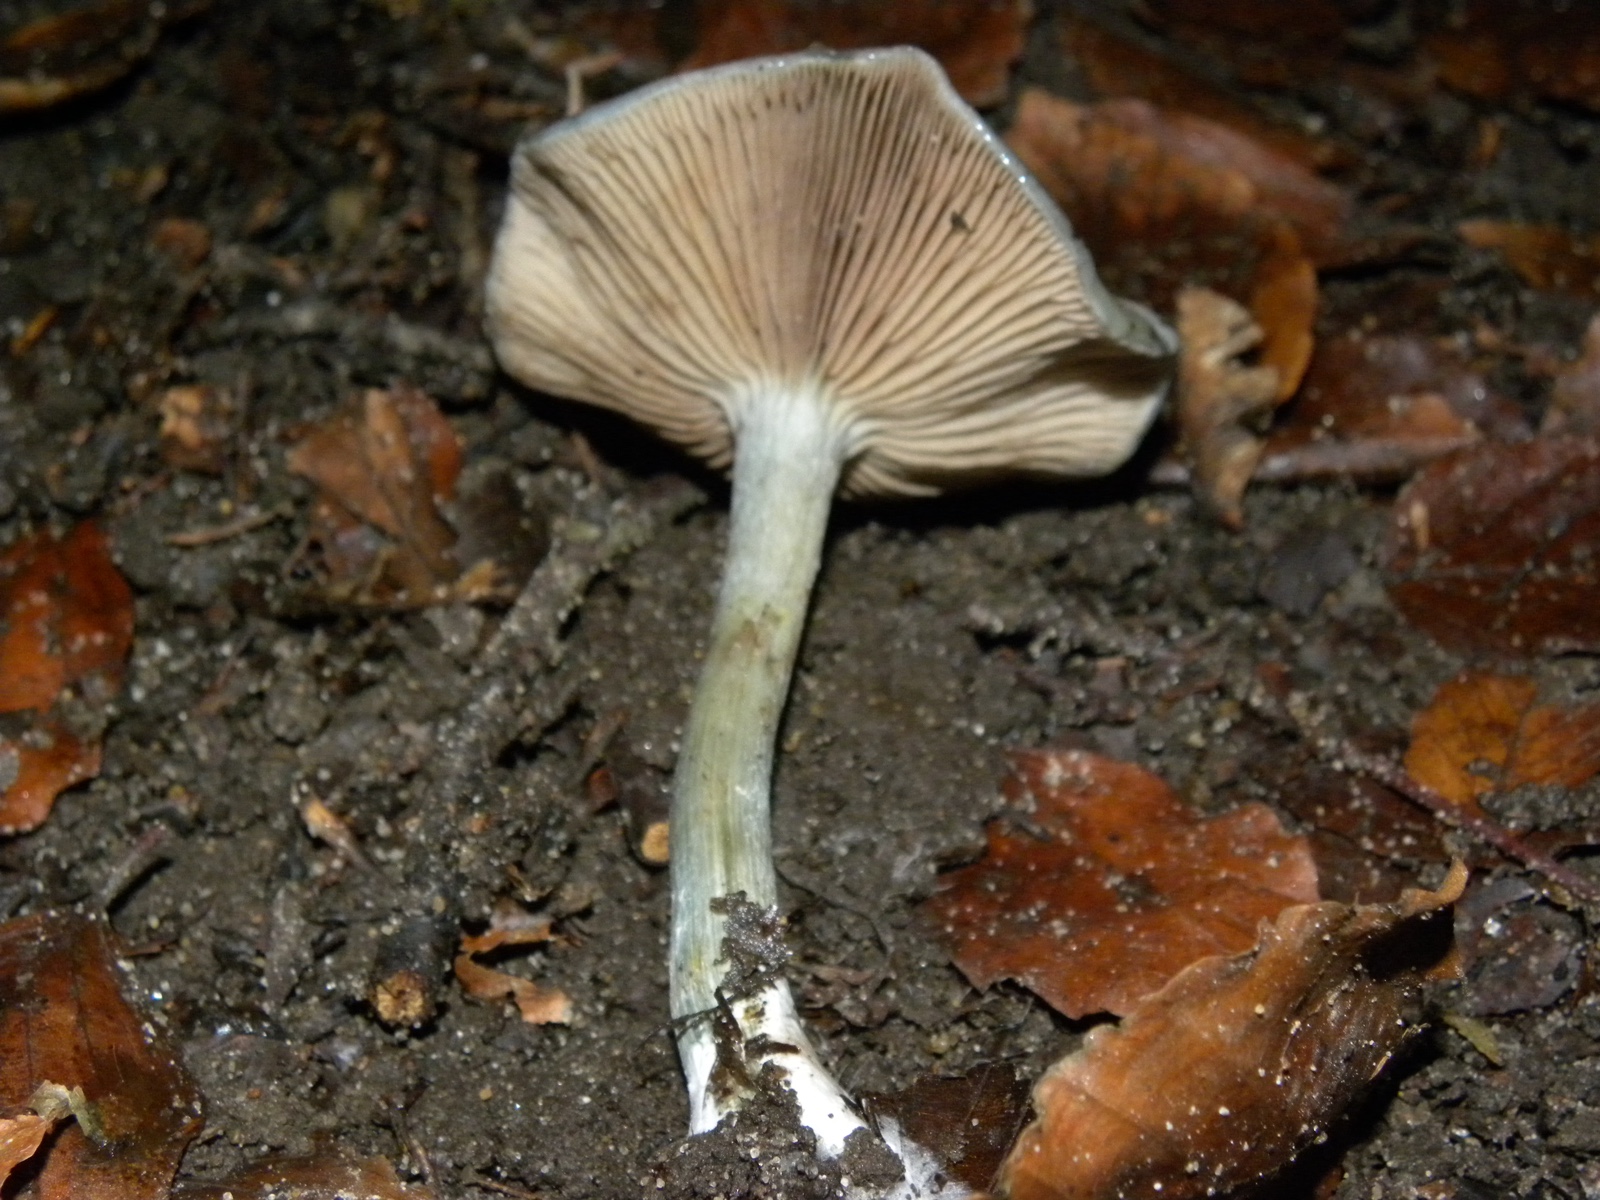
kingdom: Fungi
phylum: Basidiomycota
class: Agaricomycetes
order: Agaricales
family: Strophariaceae
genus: Stropharia
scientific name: Stropharia cyanea
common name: blågrøn bredblad
